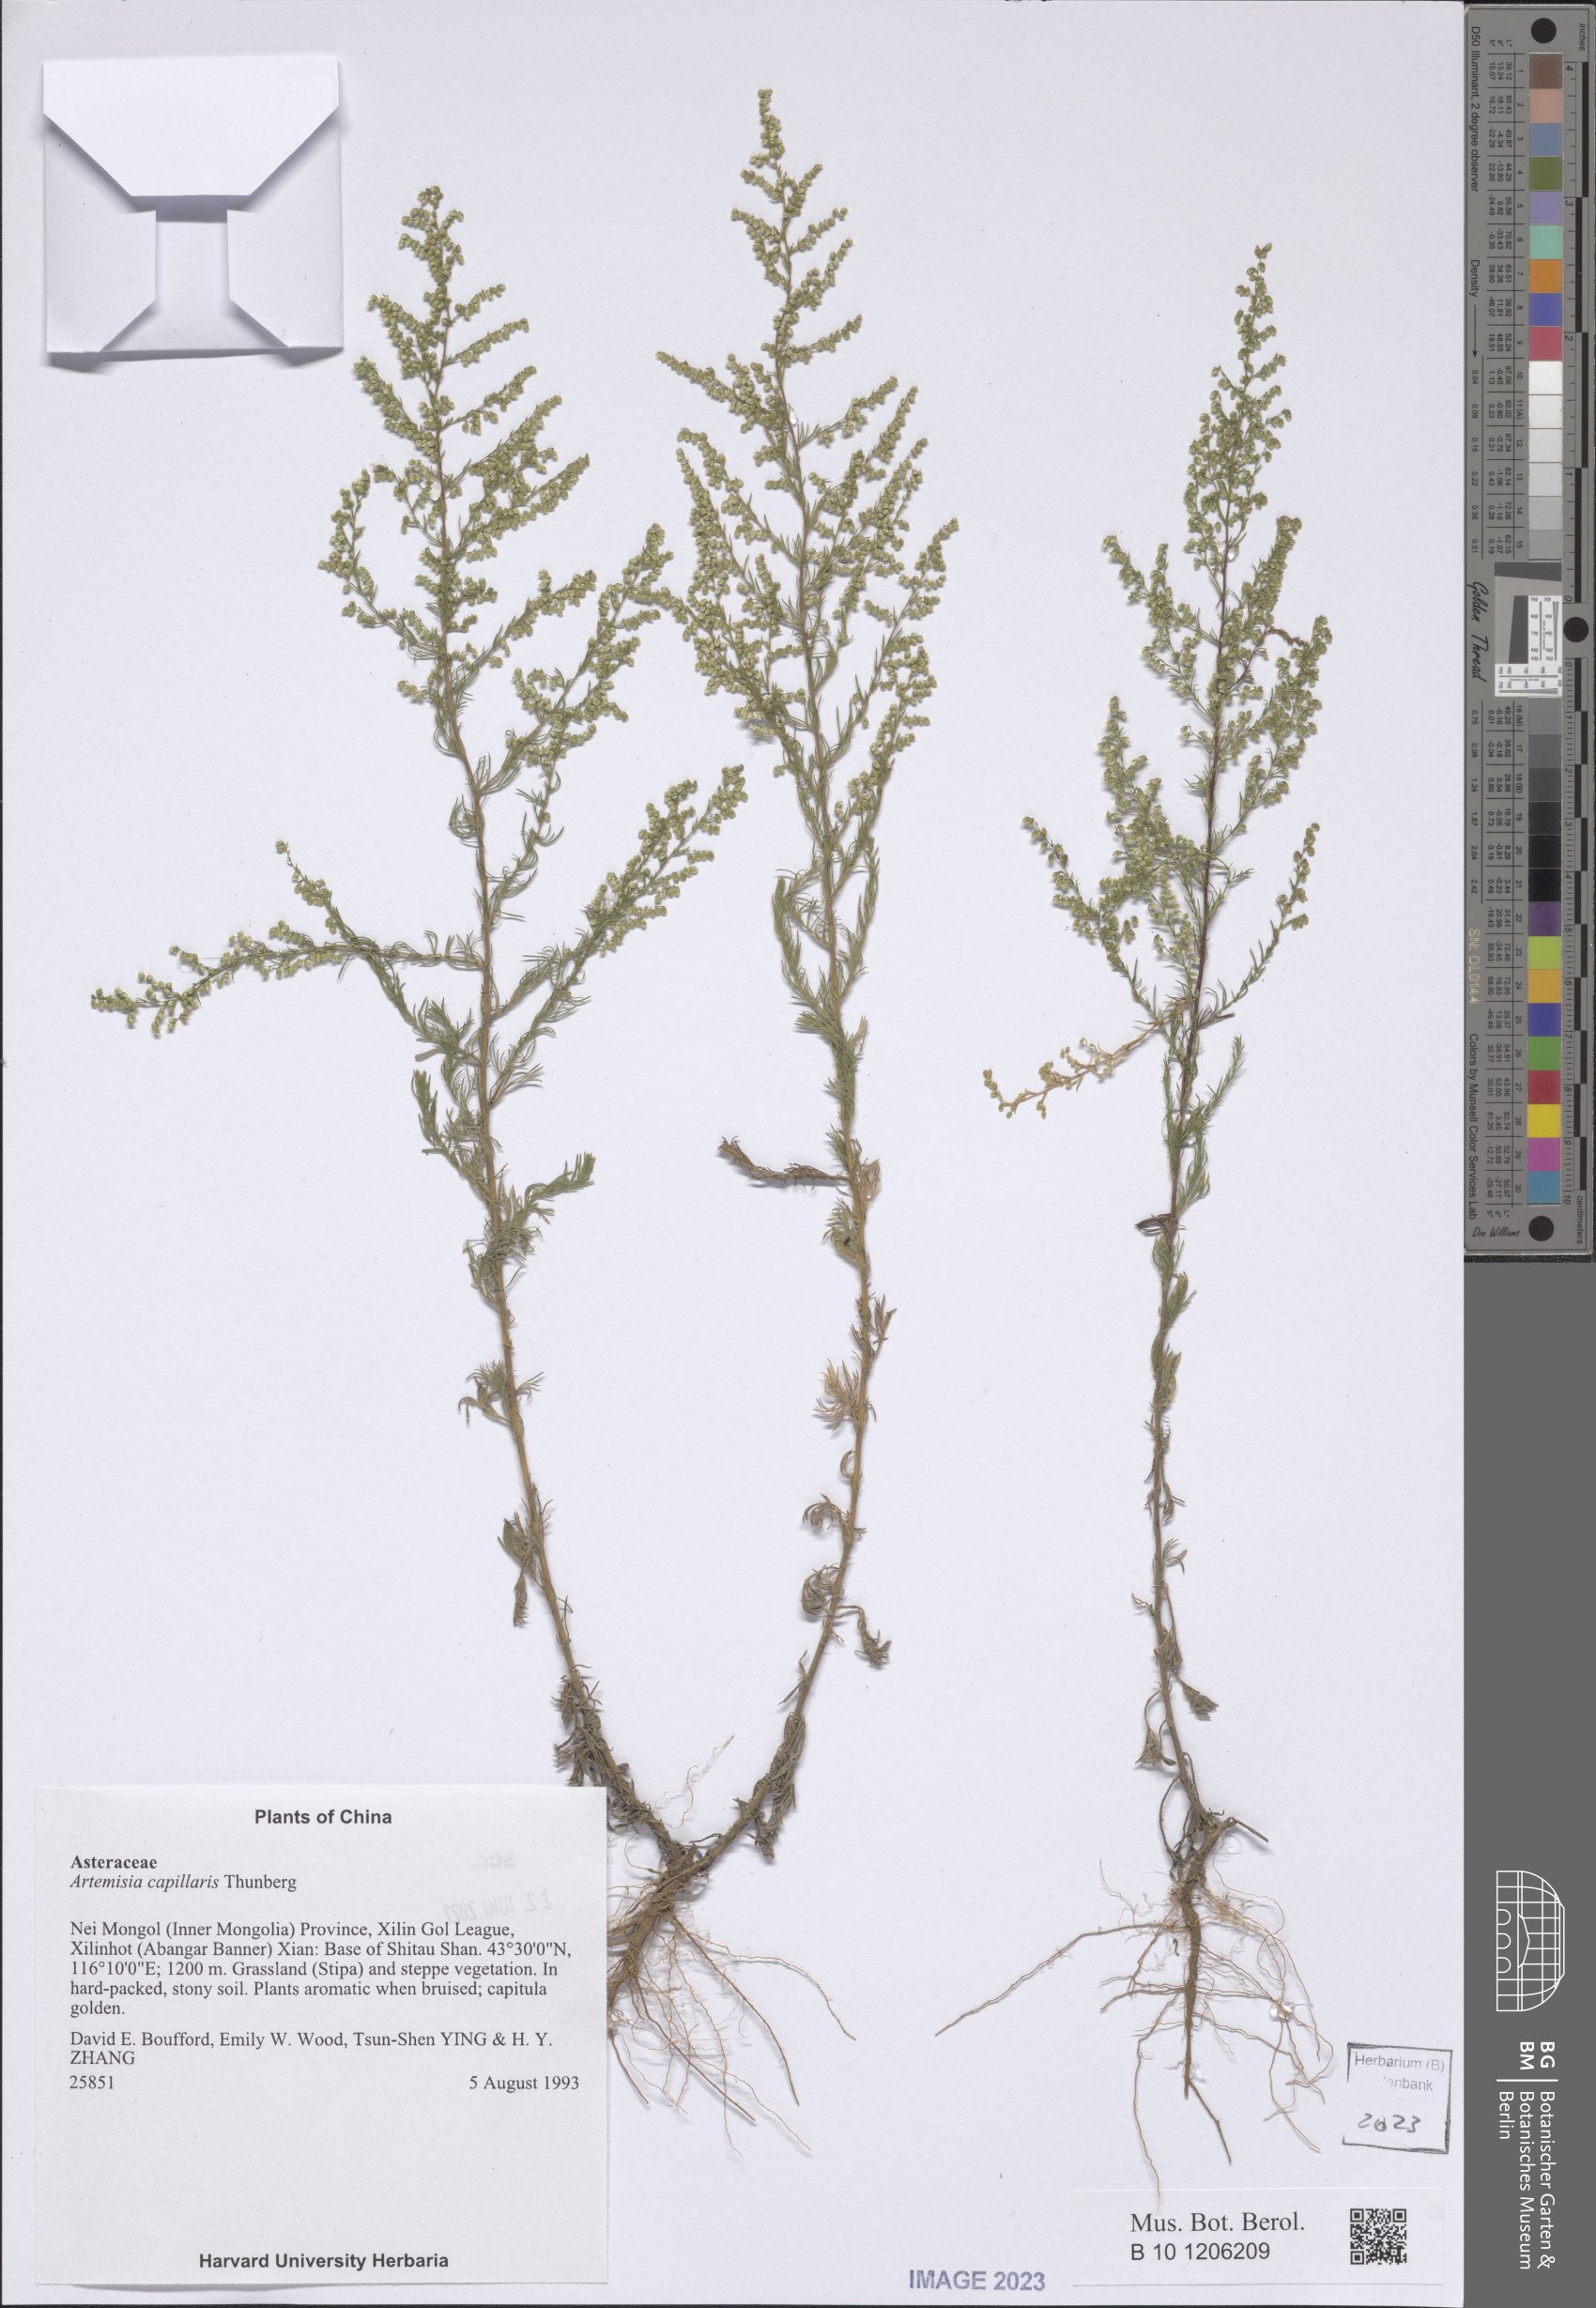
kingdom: Plantae
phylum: Tracheophyta
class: Magnoliopsida
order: Asterales
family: Asteraceae
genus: Artemisia
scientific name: Artemisia capillaris
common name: Yin-chen wormwood
